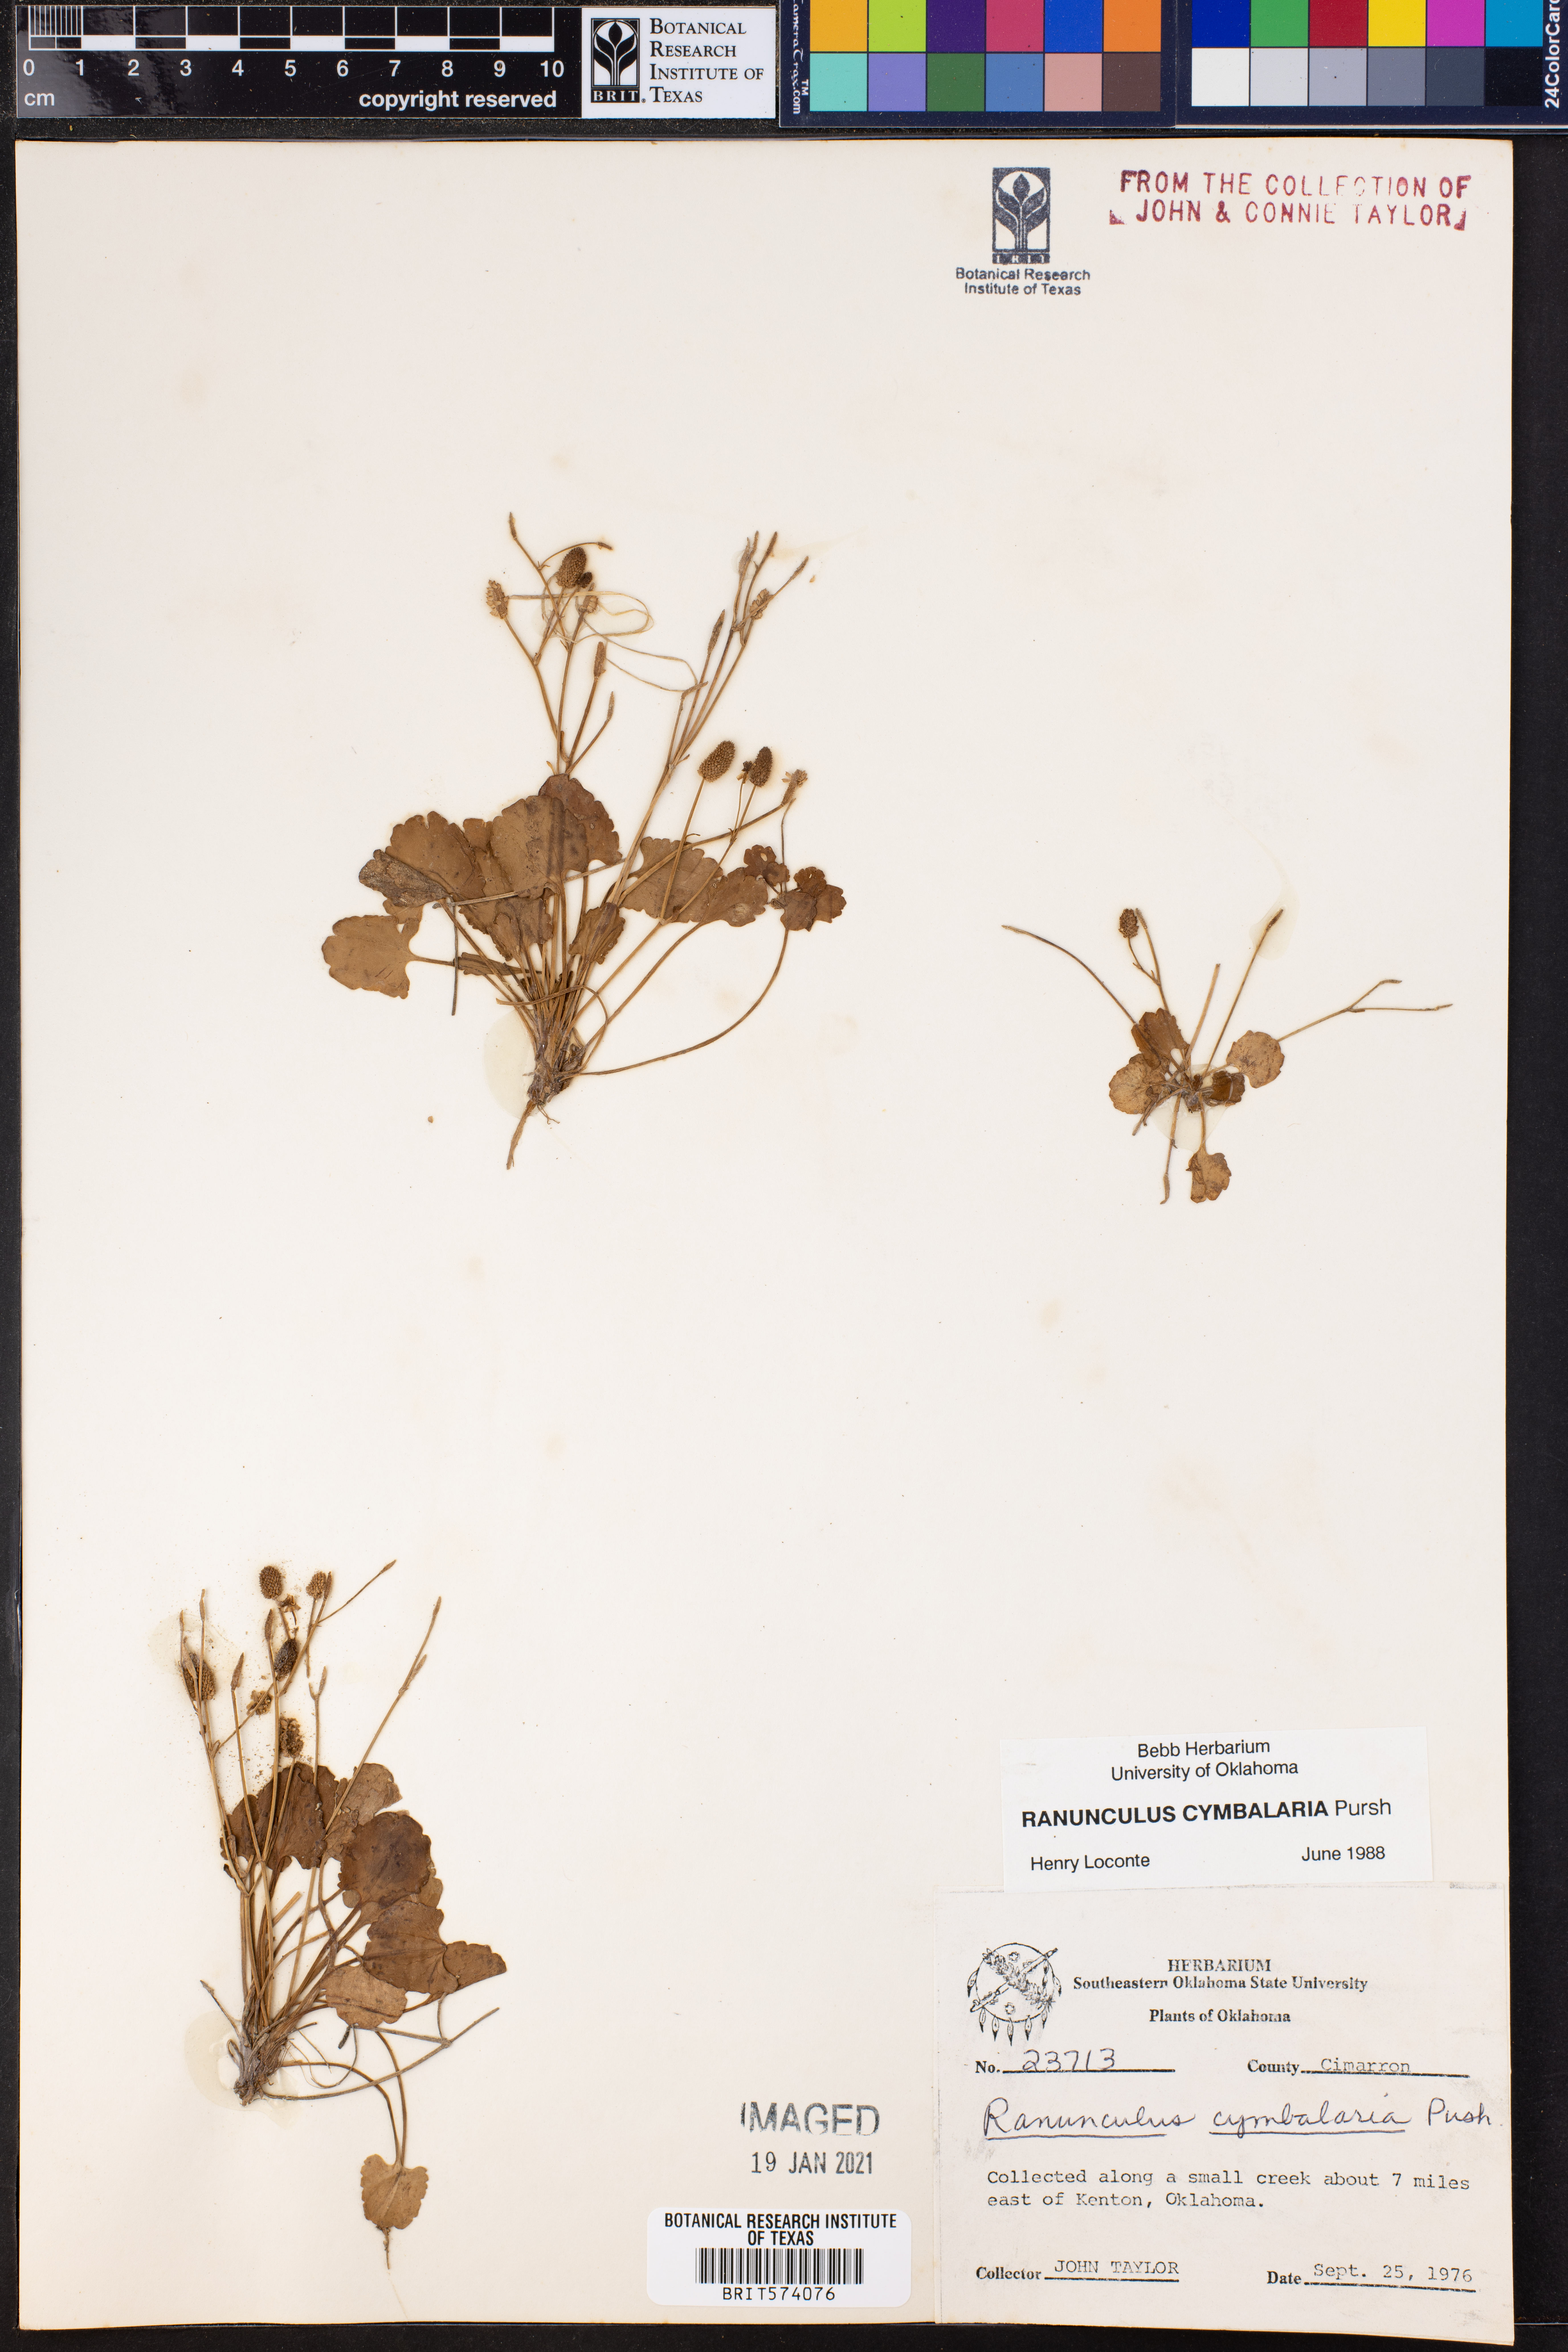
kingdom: Plantae
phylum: Tracheophyta
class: Magnoliopsida
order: Ranunculales
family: Ranunculaceae
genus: Halerpestes
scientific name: Halerpestes cymbalaria
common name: Seaside crowfoot
